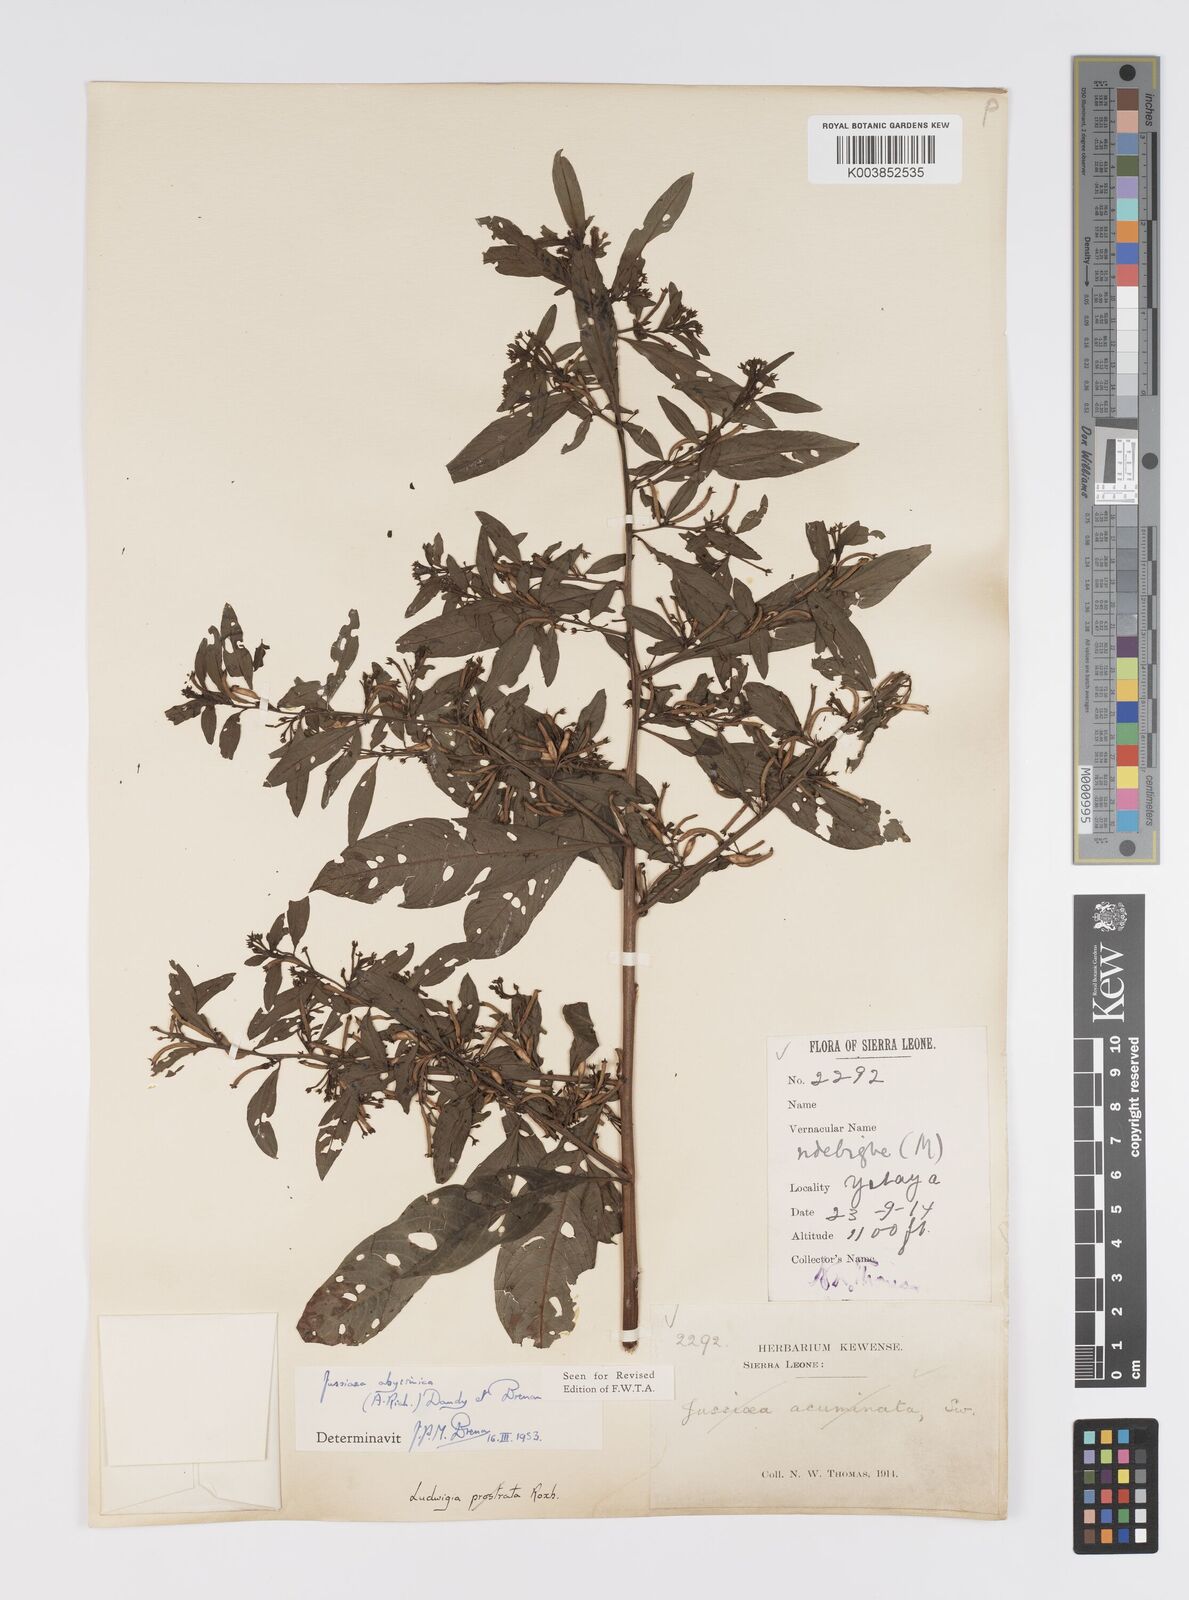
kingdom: Plantae
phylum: Tracheophyta
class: Magnoliopsida
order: Myrtales
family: Onagraceae
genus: Ludwigia
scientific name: Ludwigia abyssinica
